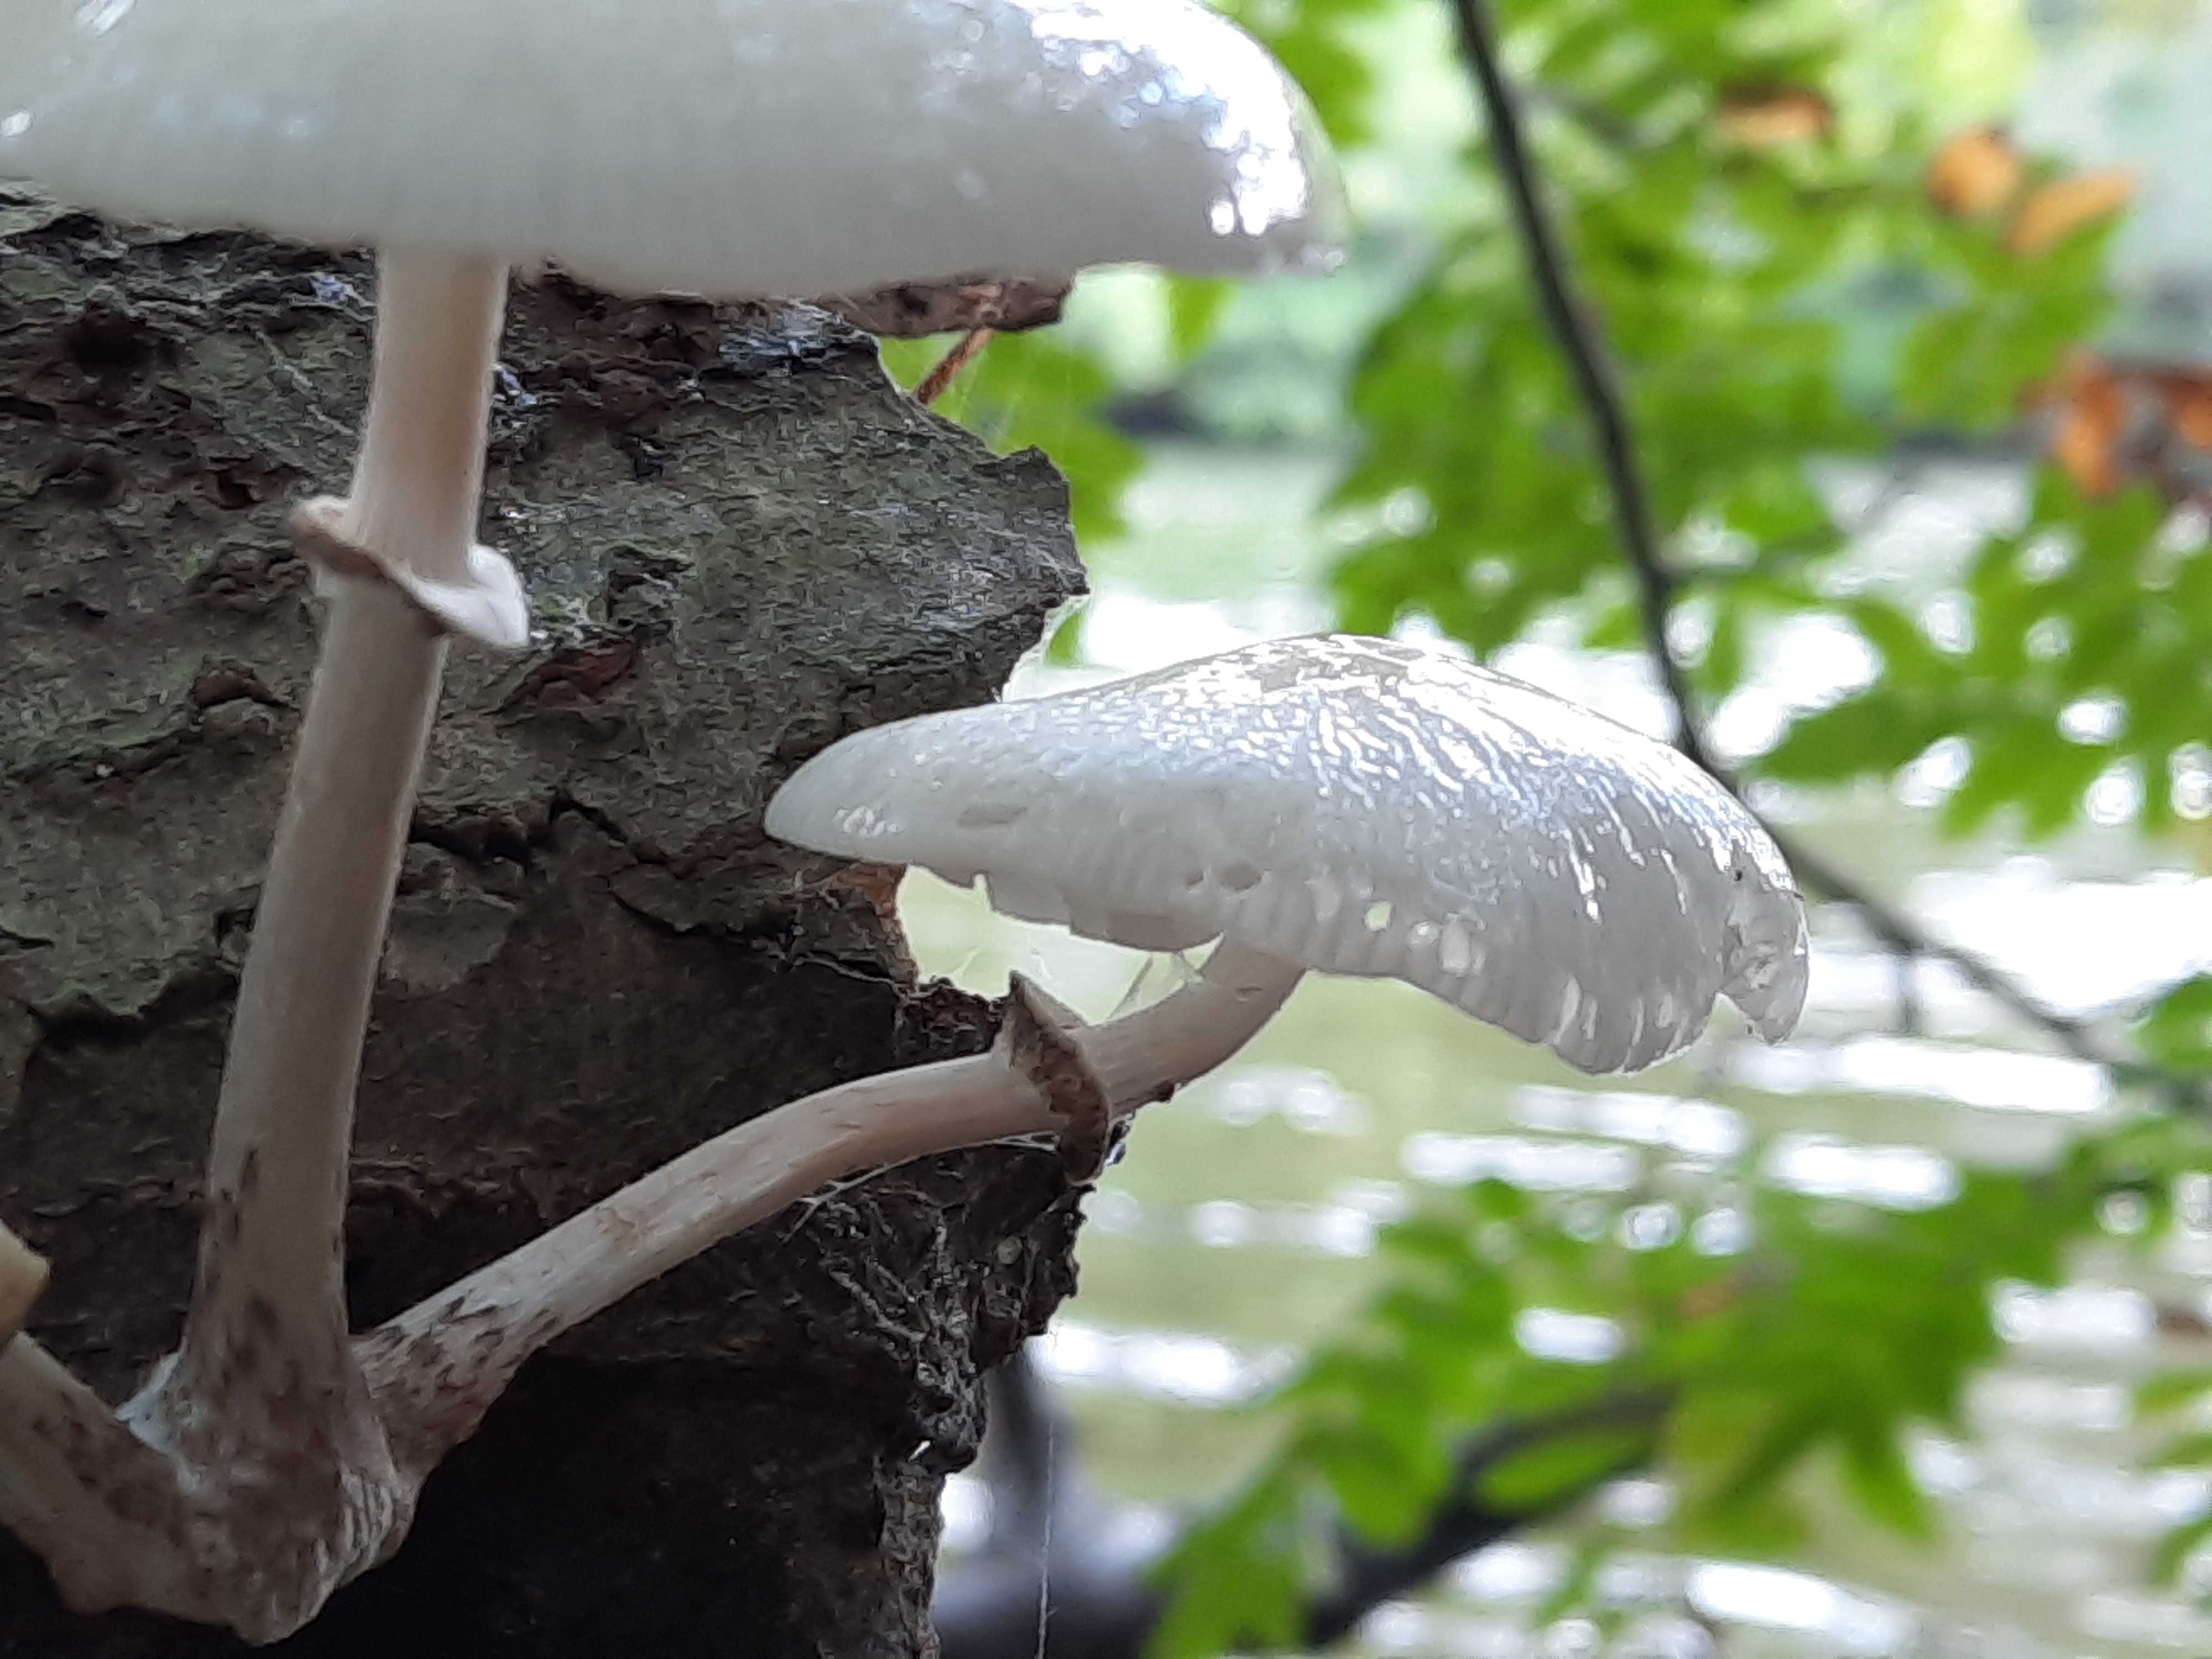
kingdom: Fungi
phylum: Basidiomycota
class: Agaricomycetes
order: Agaricales
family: Physalacriaceae
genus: Mucidula
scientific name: Mucidula mucida
